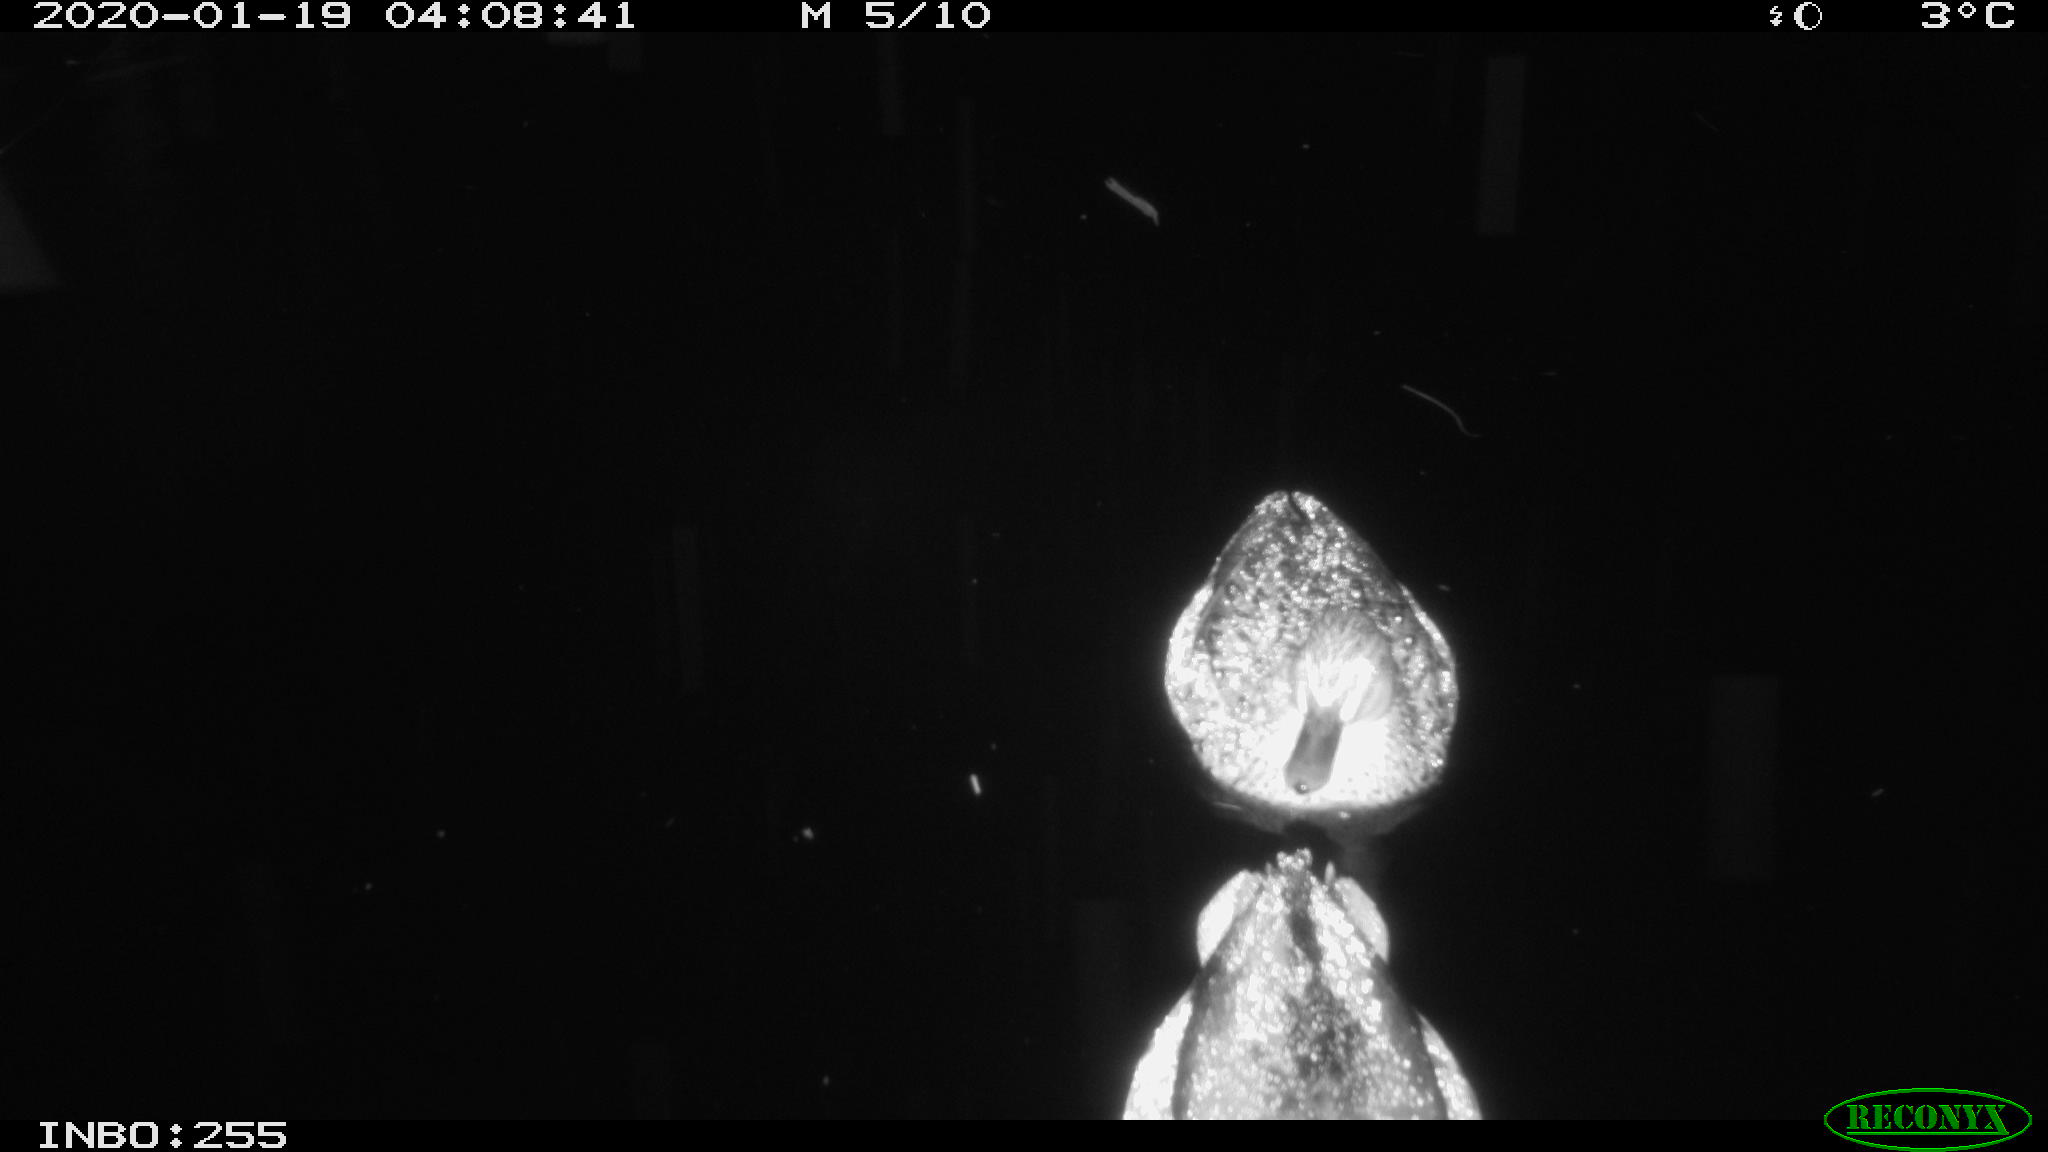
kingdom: Animalia
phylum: Chordata
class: Aves
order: Gruiformes
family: Rallidae
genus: Gallinula
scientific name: Gallinula chloropus
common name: Common moorhen
